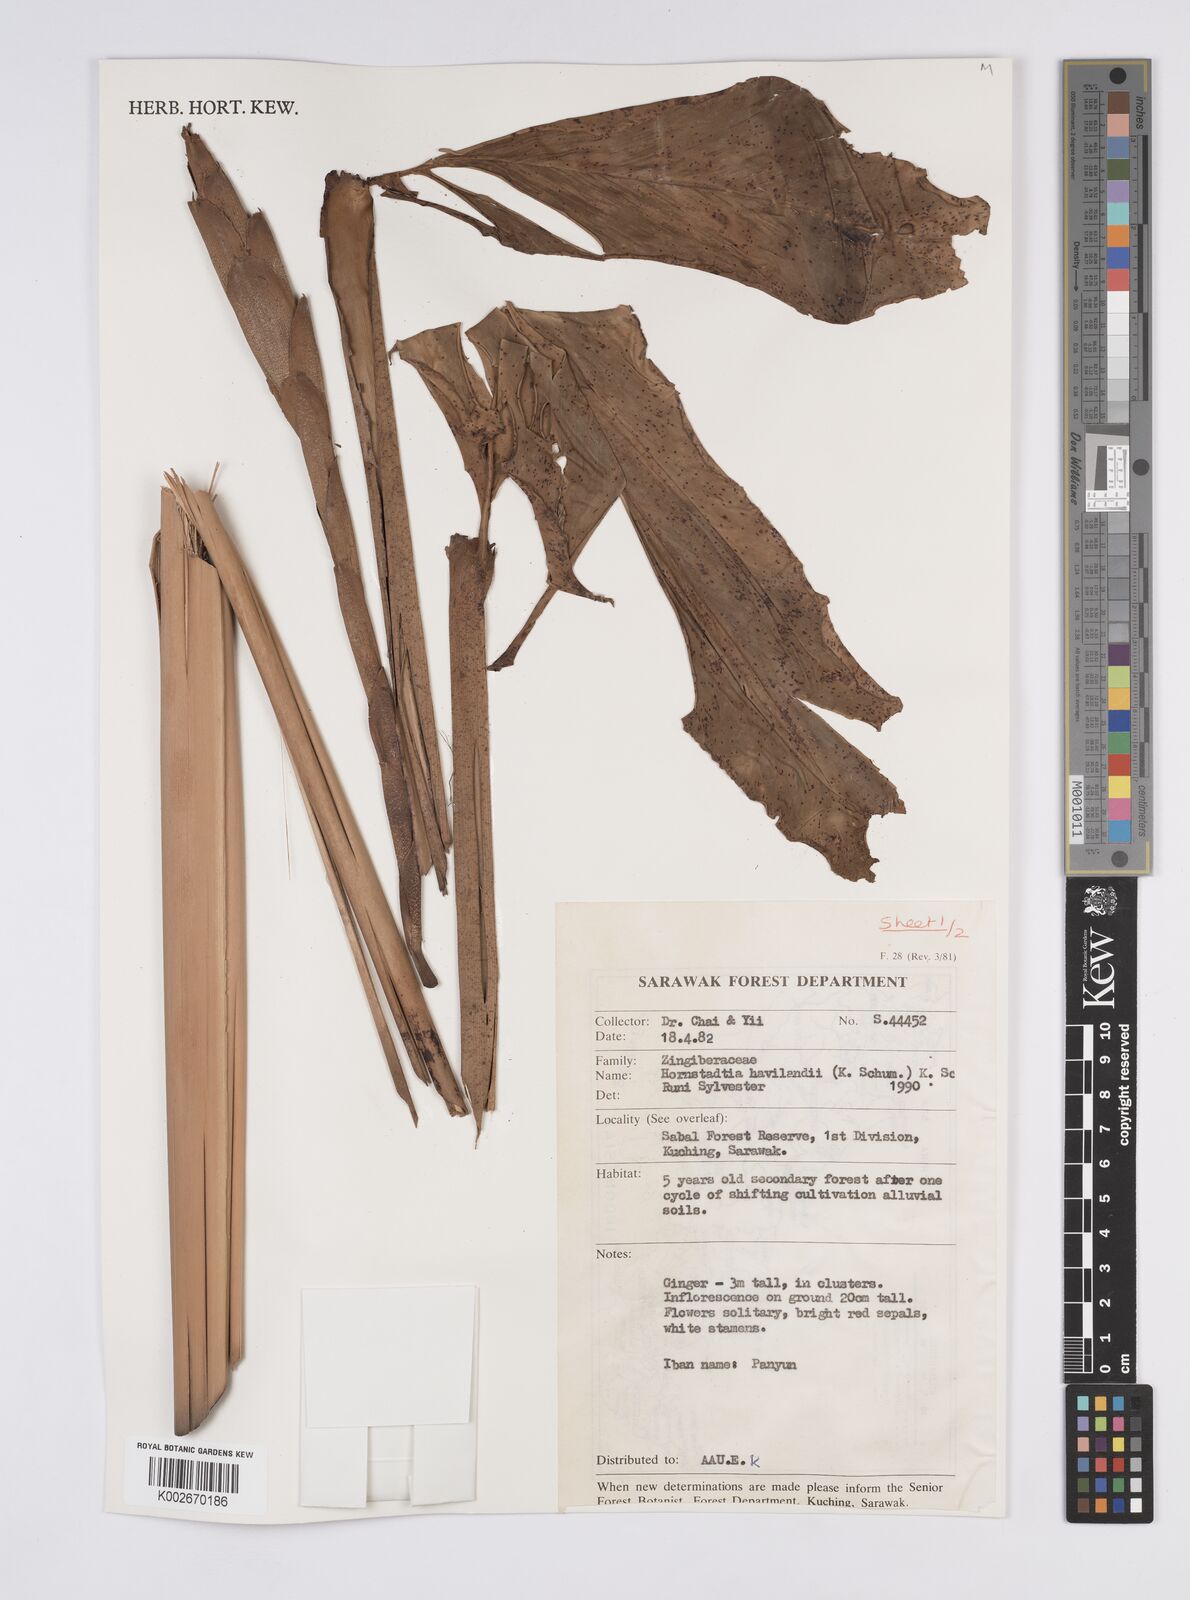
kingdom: Plantae
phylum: Tracheophyta
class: Liliopsida
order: Zingiberales
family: Zingiberaceae
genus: Hornstedtia
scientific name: Hornstedtia havilandii
